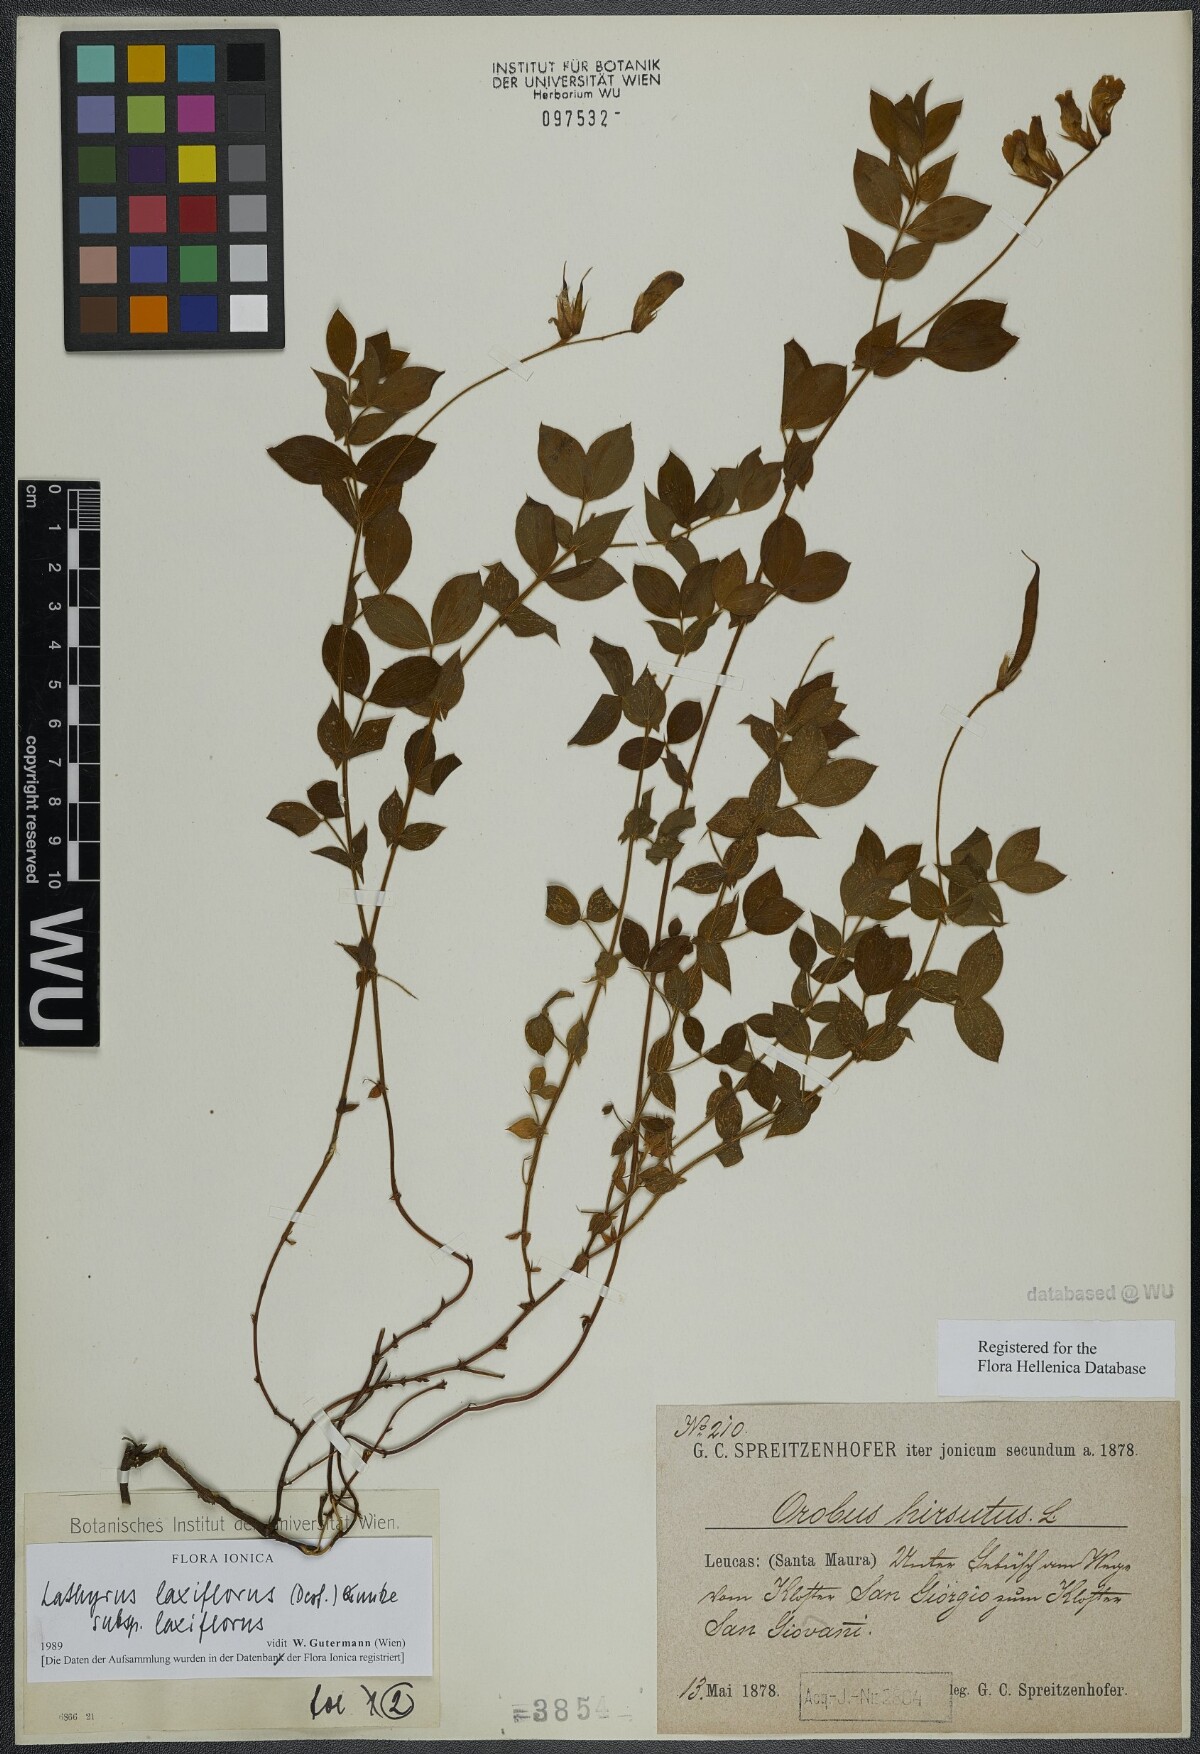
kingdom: Plantae
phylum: Tracheophyta
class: Magnoliopsida
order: Fabales
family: Fabaceae
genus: Lathyrus
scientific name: Lathyrus laxiflorus
